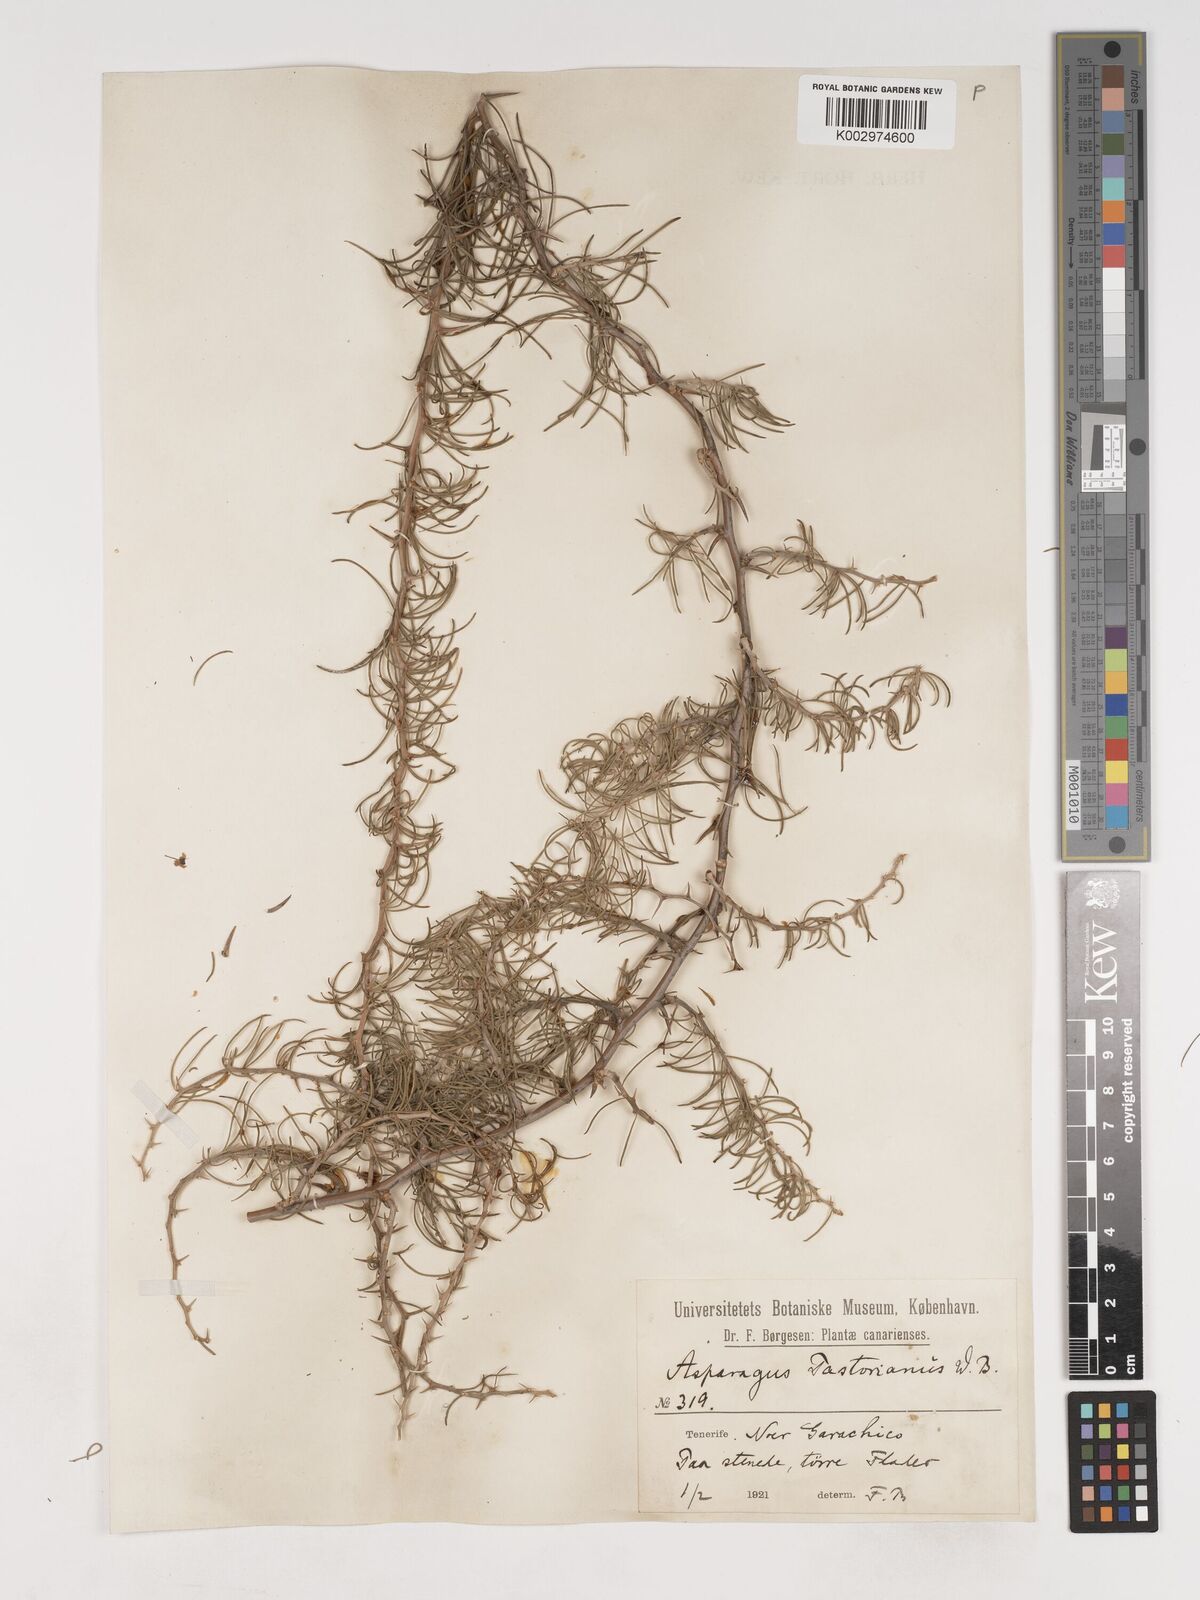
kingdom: Plantae
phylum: Tracheophyta
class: Liliopsida
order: Asparagales
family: Asparagaceae
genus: Asparagus
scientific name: Asparagus albus
